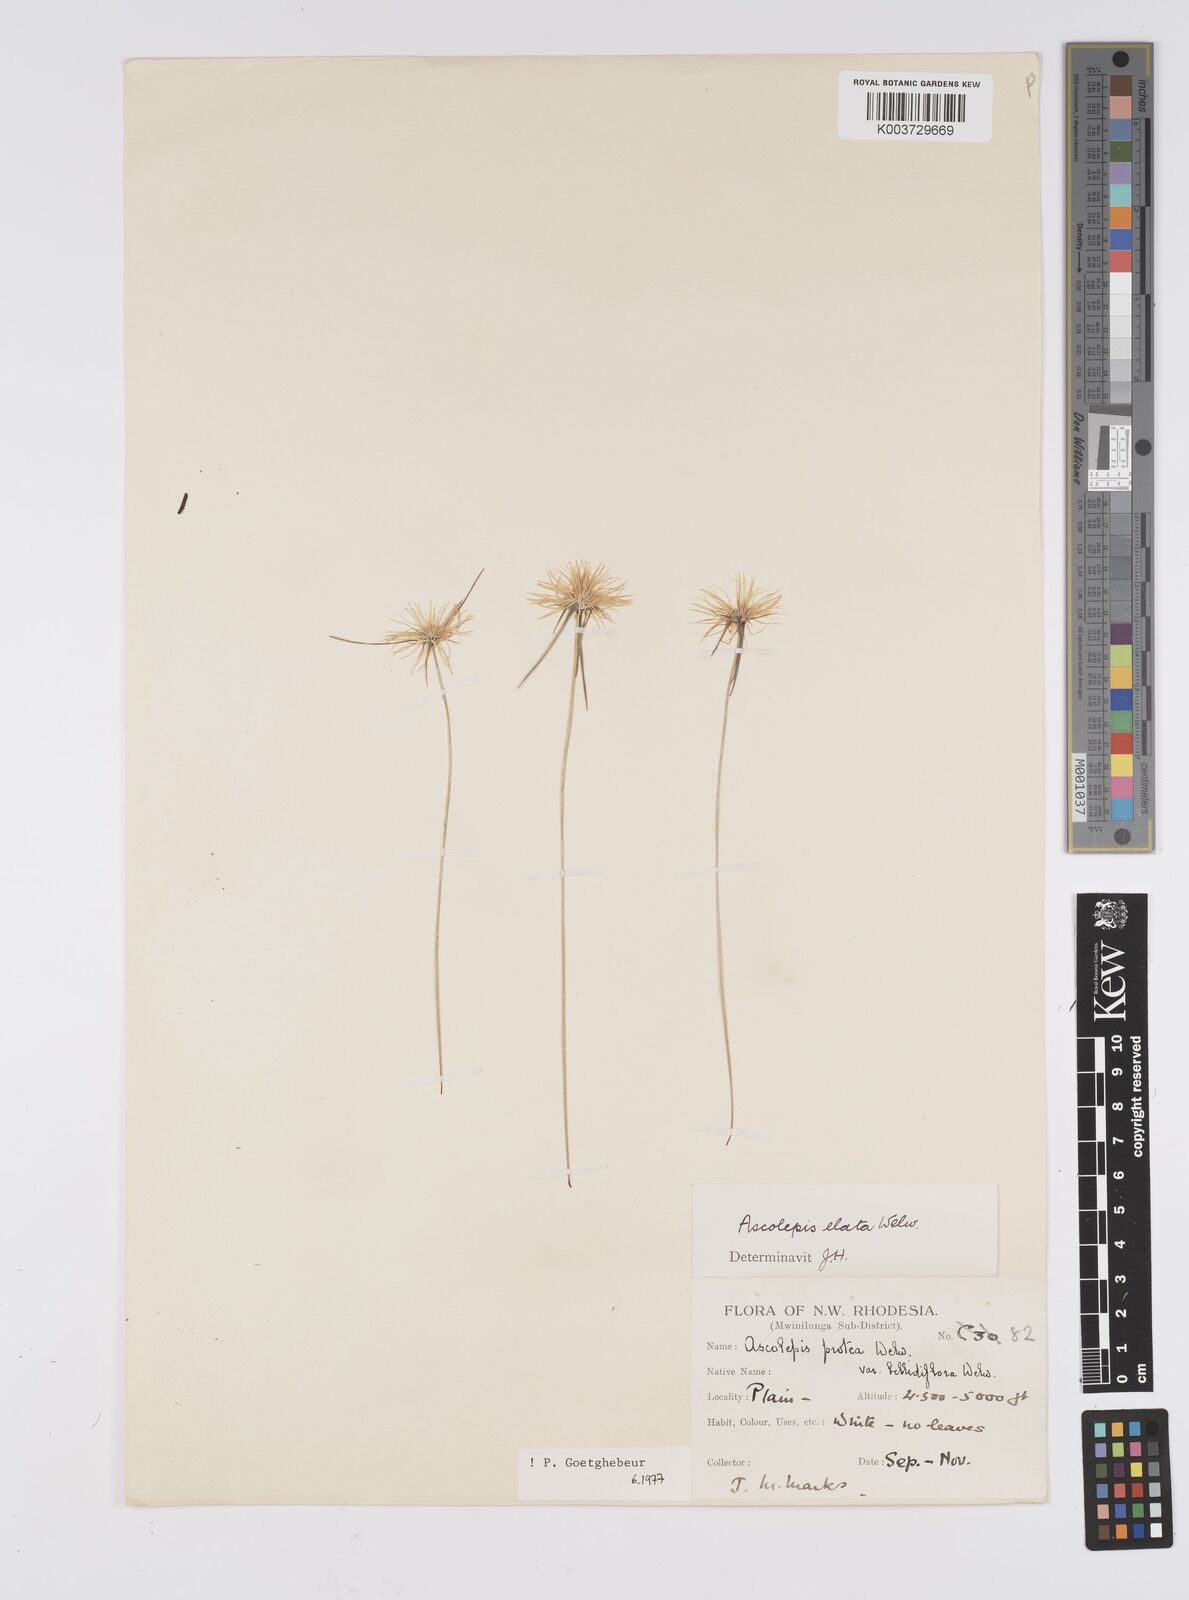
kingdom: Plantae
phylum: Tracheophyta
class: Liliopsida
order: Poales
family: Cyperaceae
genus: Cyperus
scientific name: Cyperus
